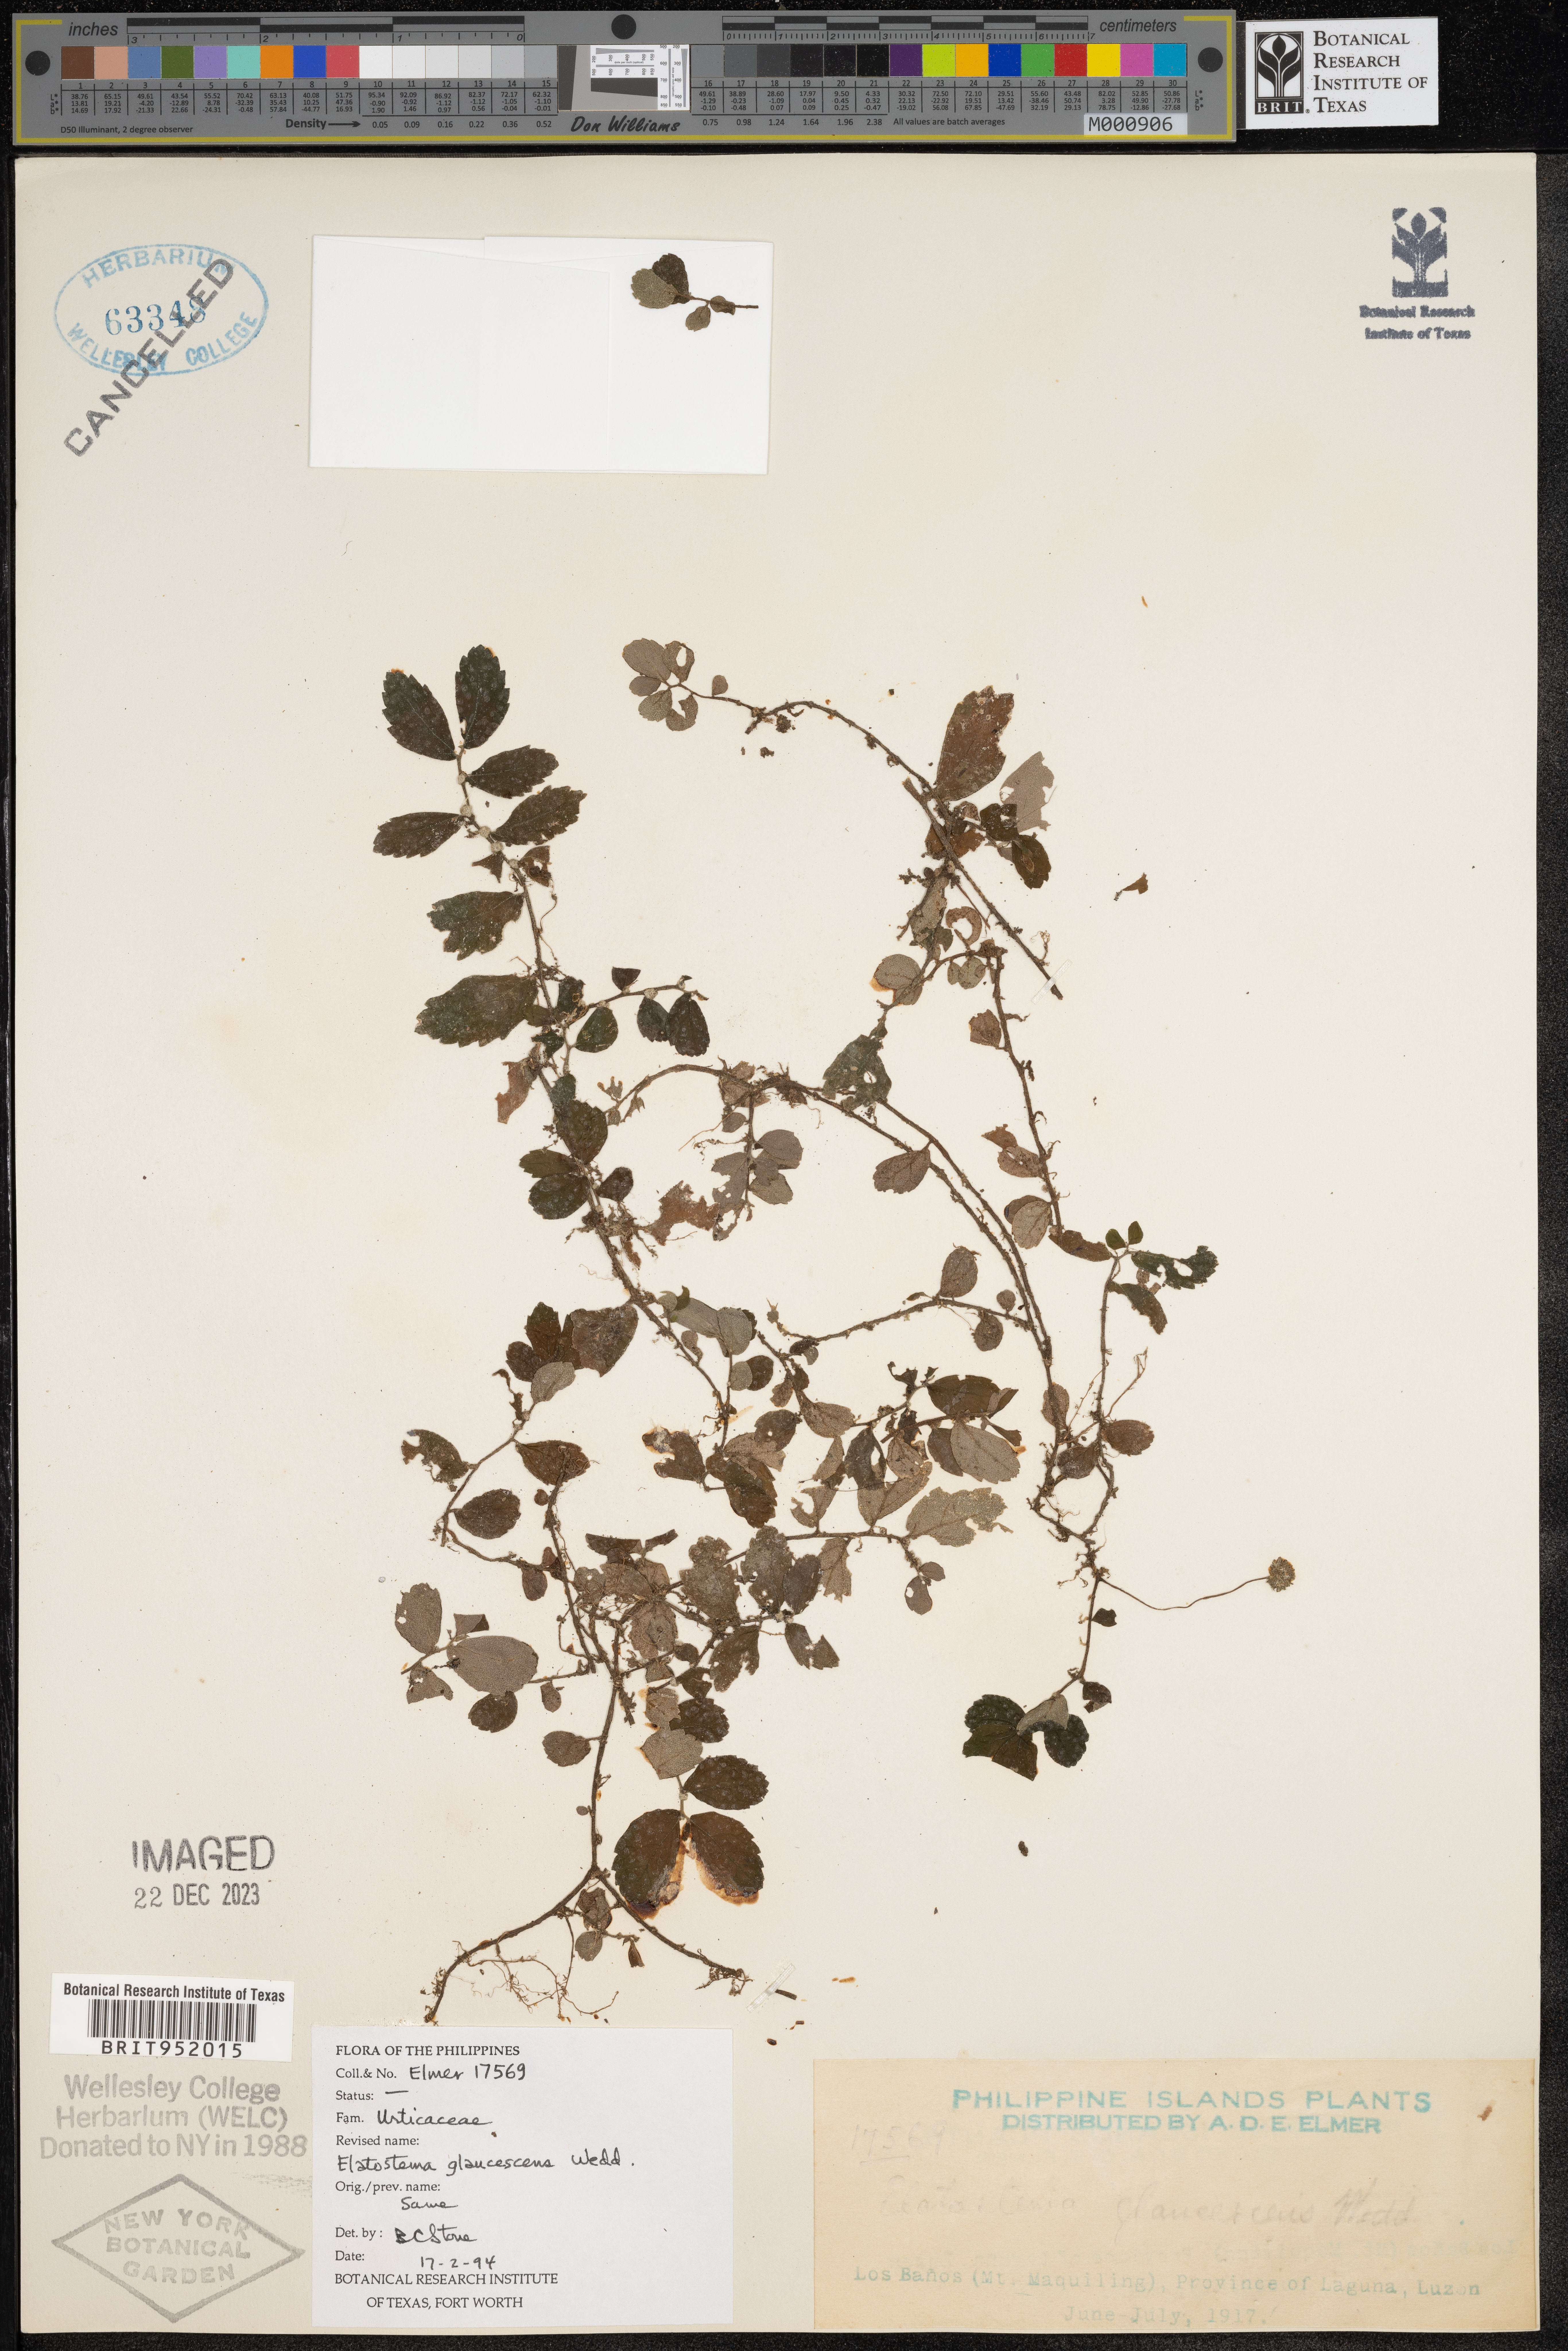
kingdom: Plantae
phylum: Tracheophyta
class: Magnoliopsida
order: Rosales
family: Urticaceae
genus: Elatostema
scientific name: Elatostema
